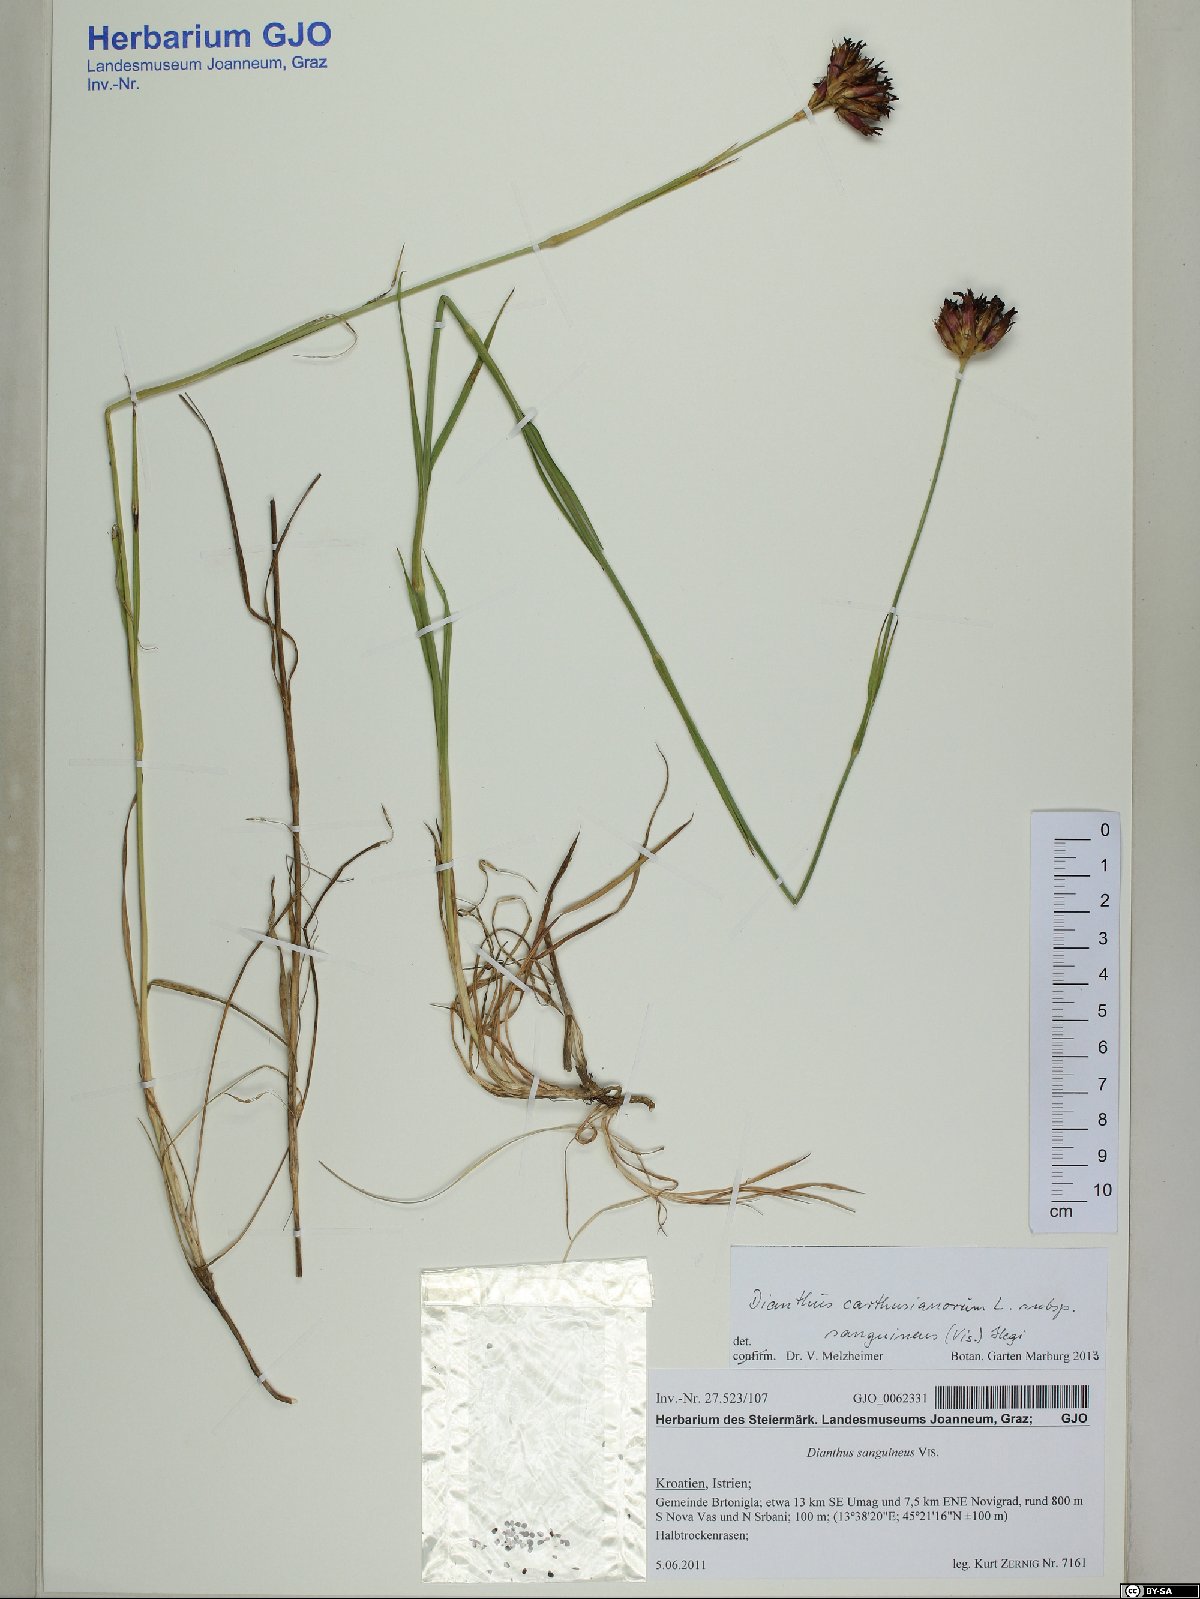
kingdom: Plantae
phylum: Tracheophyta
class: Magnoliopsida
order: Caryophyllales
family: Caryophyllaceae
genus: Dianthus
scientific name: Dianthus carthusianorum
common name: Carthusian pink
